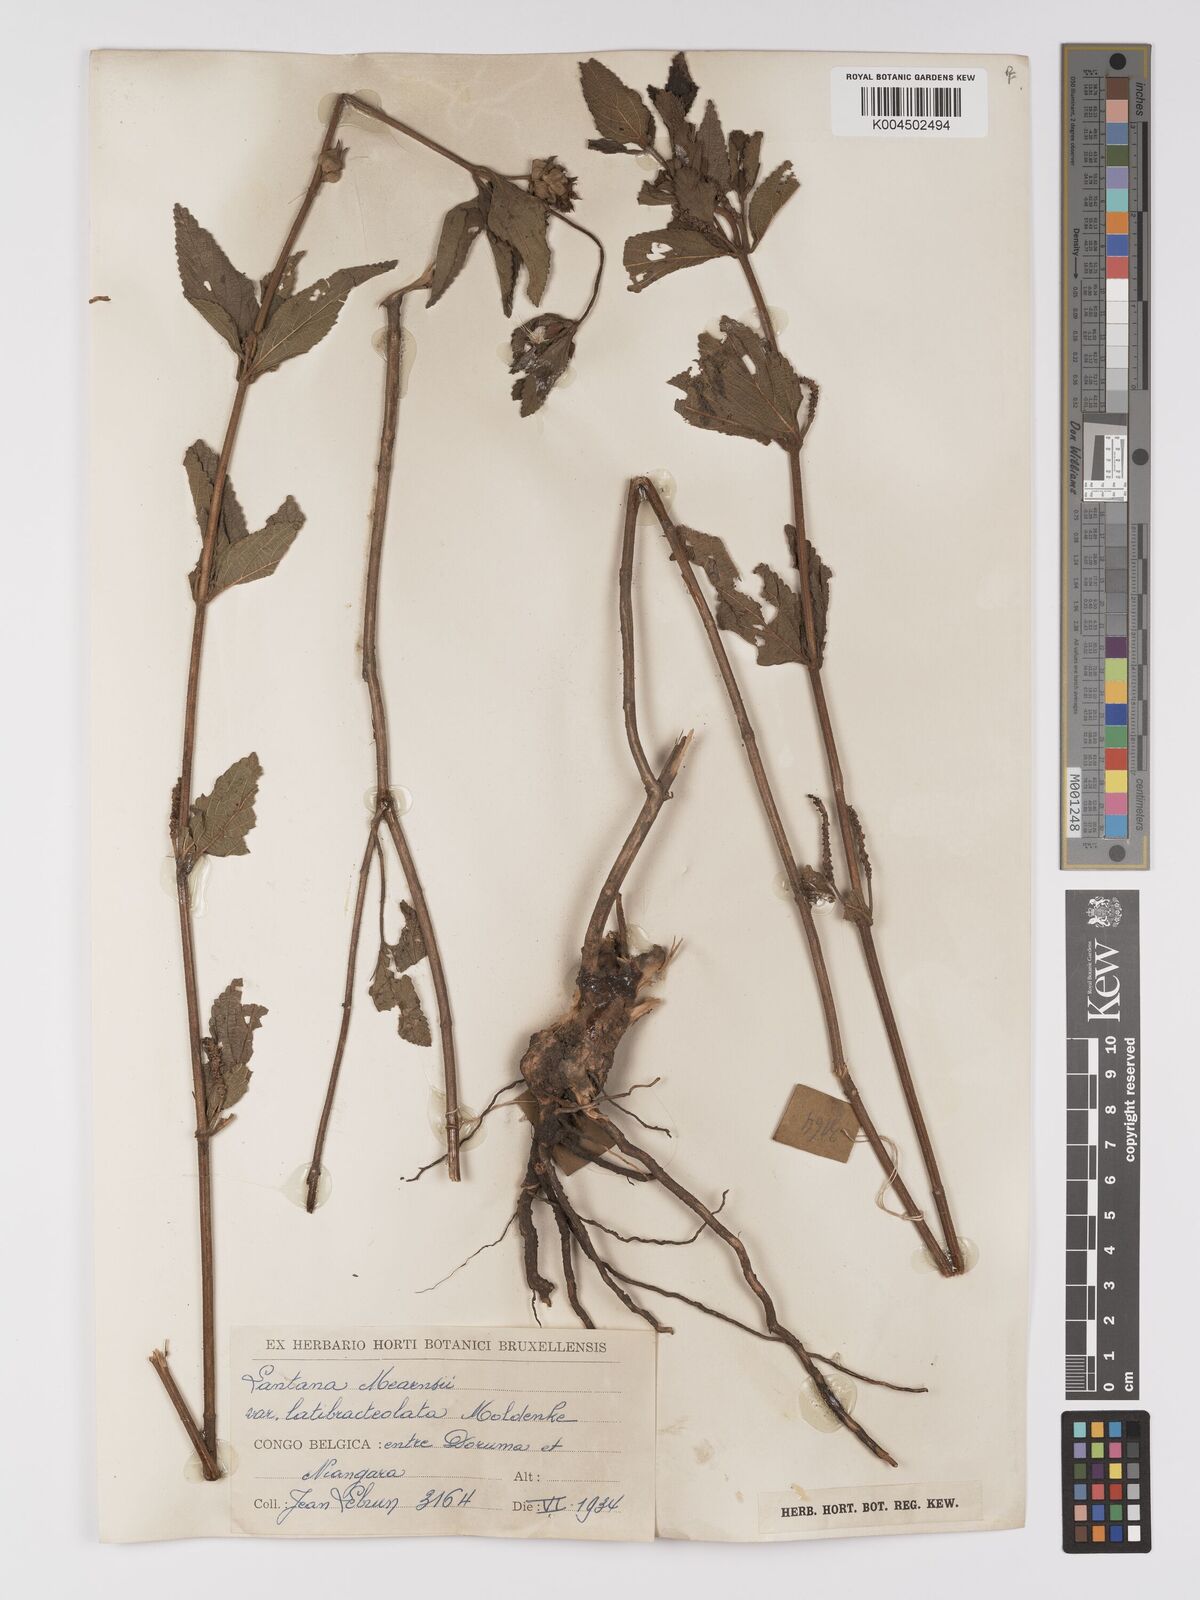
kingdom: Plantae
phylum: Tracheophyta
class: Magnoliopsida
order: Lamiales
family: Verbenaceae
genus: Lantana
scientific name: Lantana ukambensis
